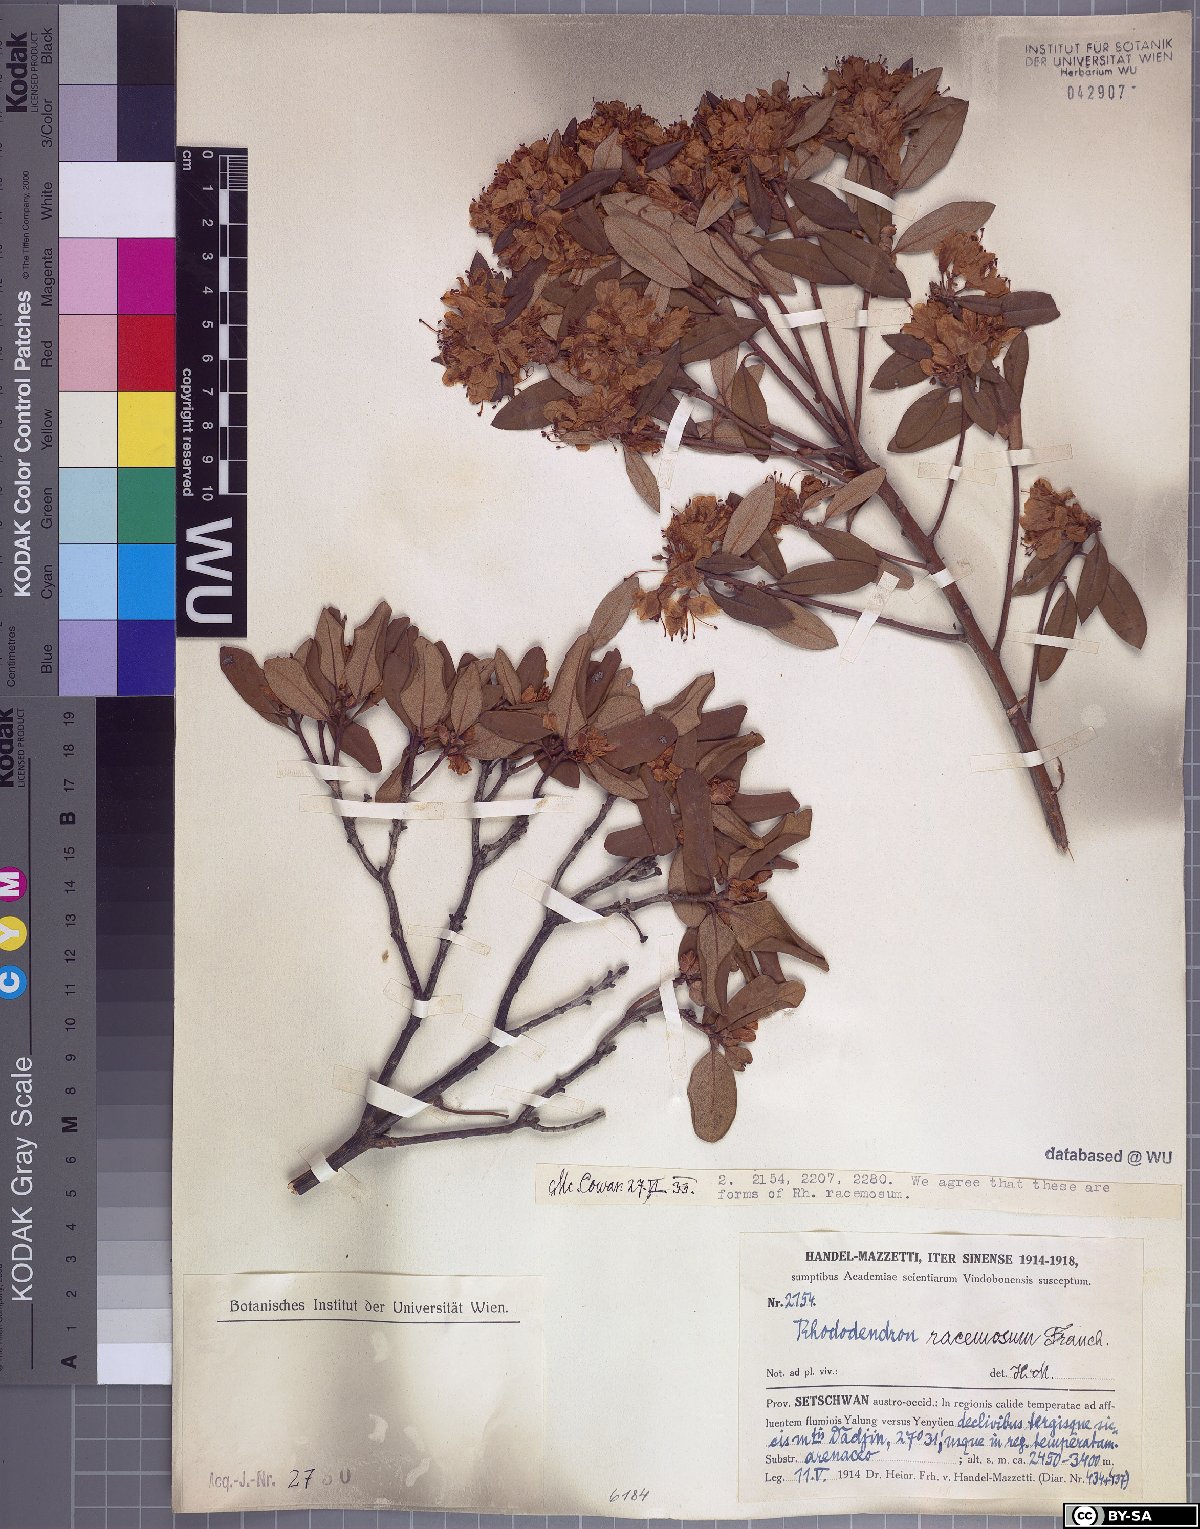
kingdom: Plantae
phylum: Tracheophyta
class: Magnoliopsida
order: Ericales
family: Ericaceae
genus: Rhododendron
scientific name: Rhododendron racemosum
